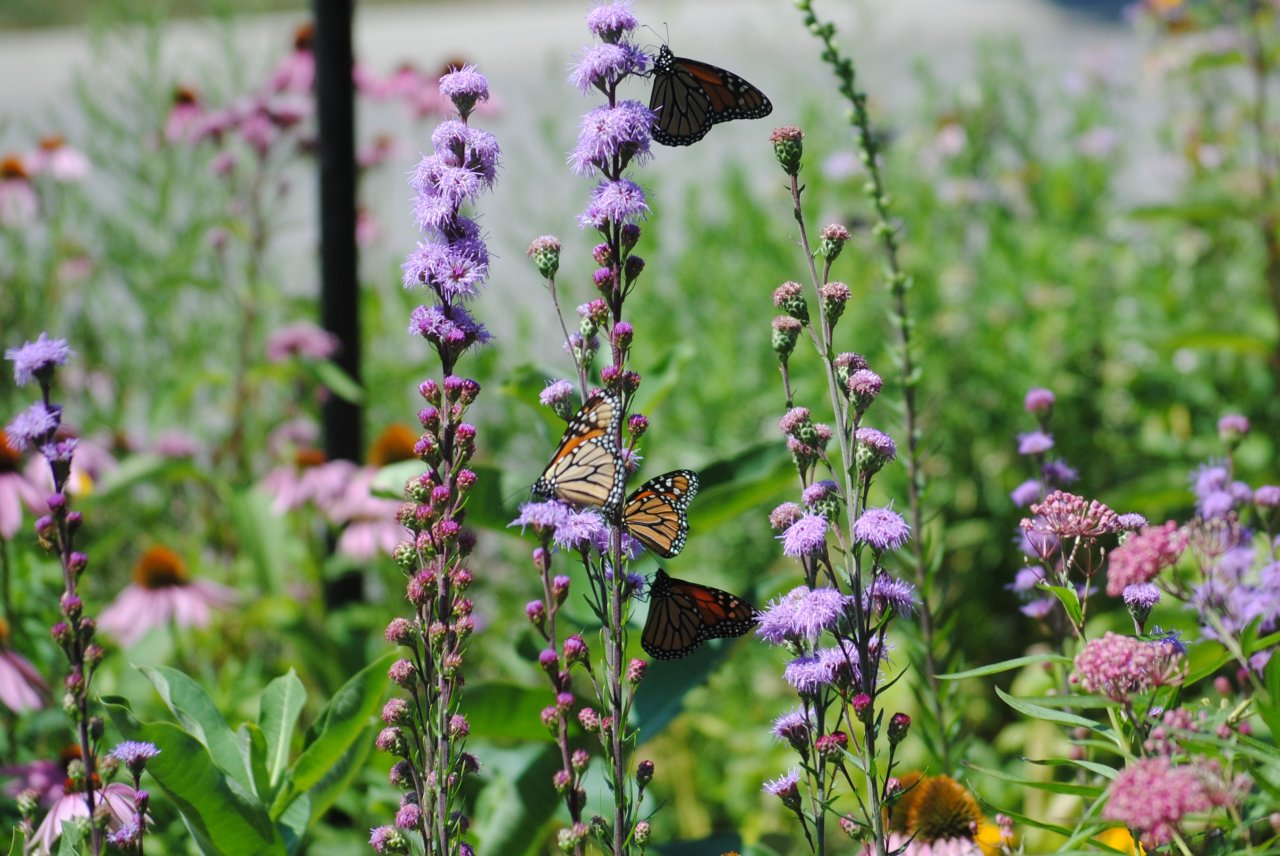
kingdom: Animalia
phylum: Arthropoda
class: Insecta
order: Lepidoptera
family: Nymphalidae
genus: Danaus
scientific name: Danaus plexippus
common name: Monarch
